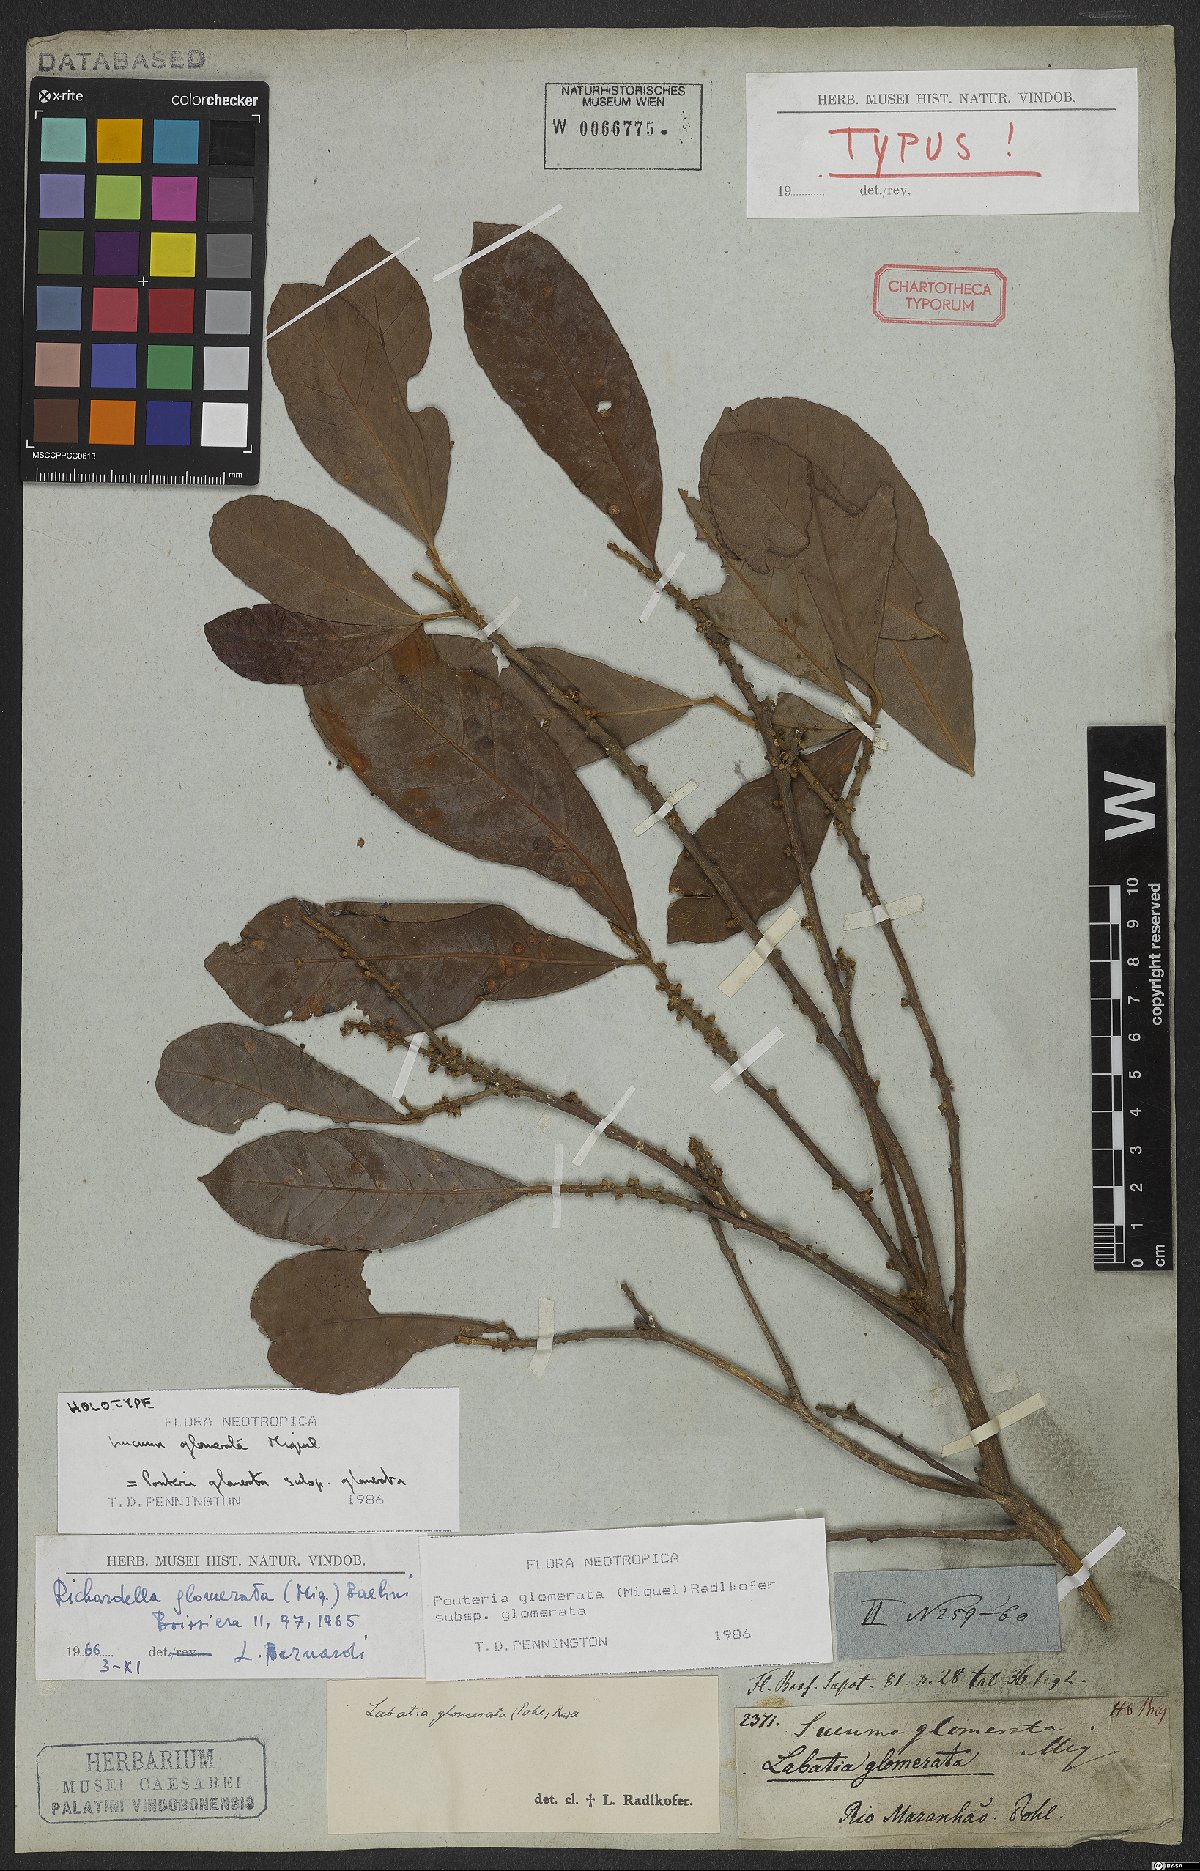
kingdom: Plantae
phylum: Tracheophyta
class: Magnoliopsida
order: Ericales
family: Sapotaceae
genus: Pouteria
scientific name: Pouteria glomerata
